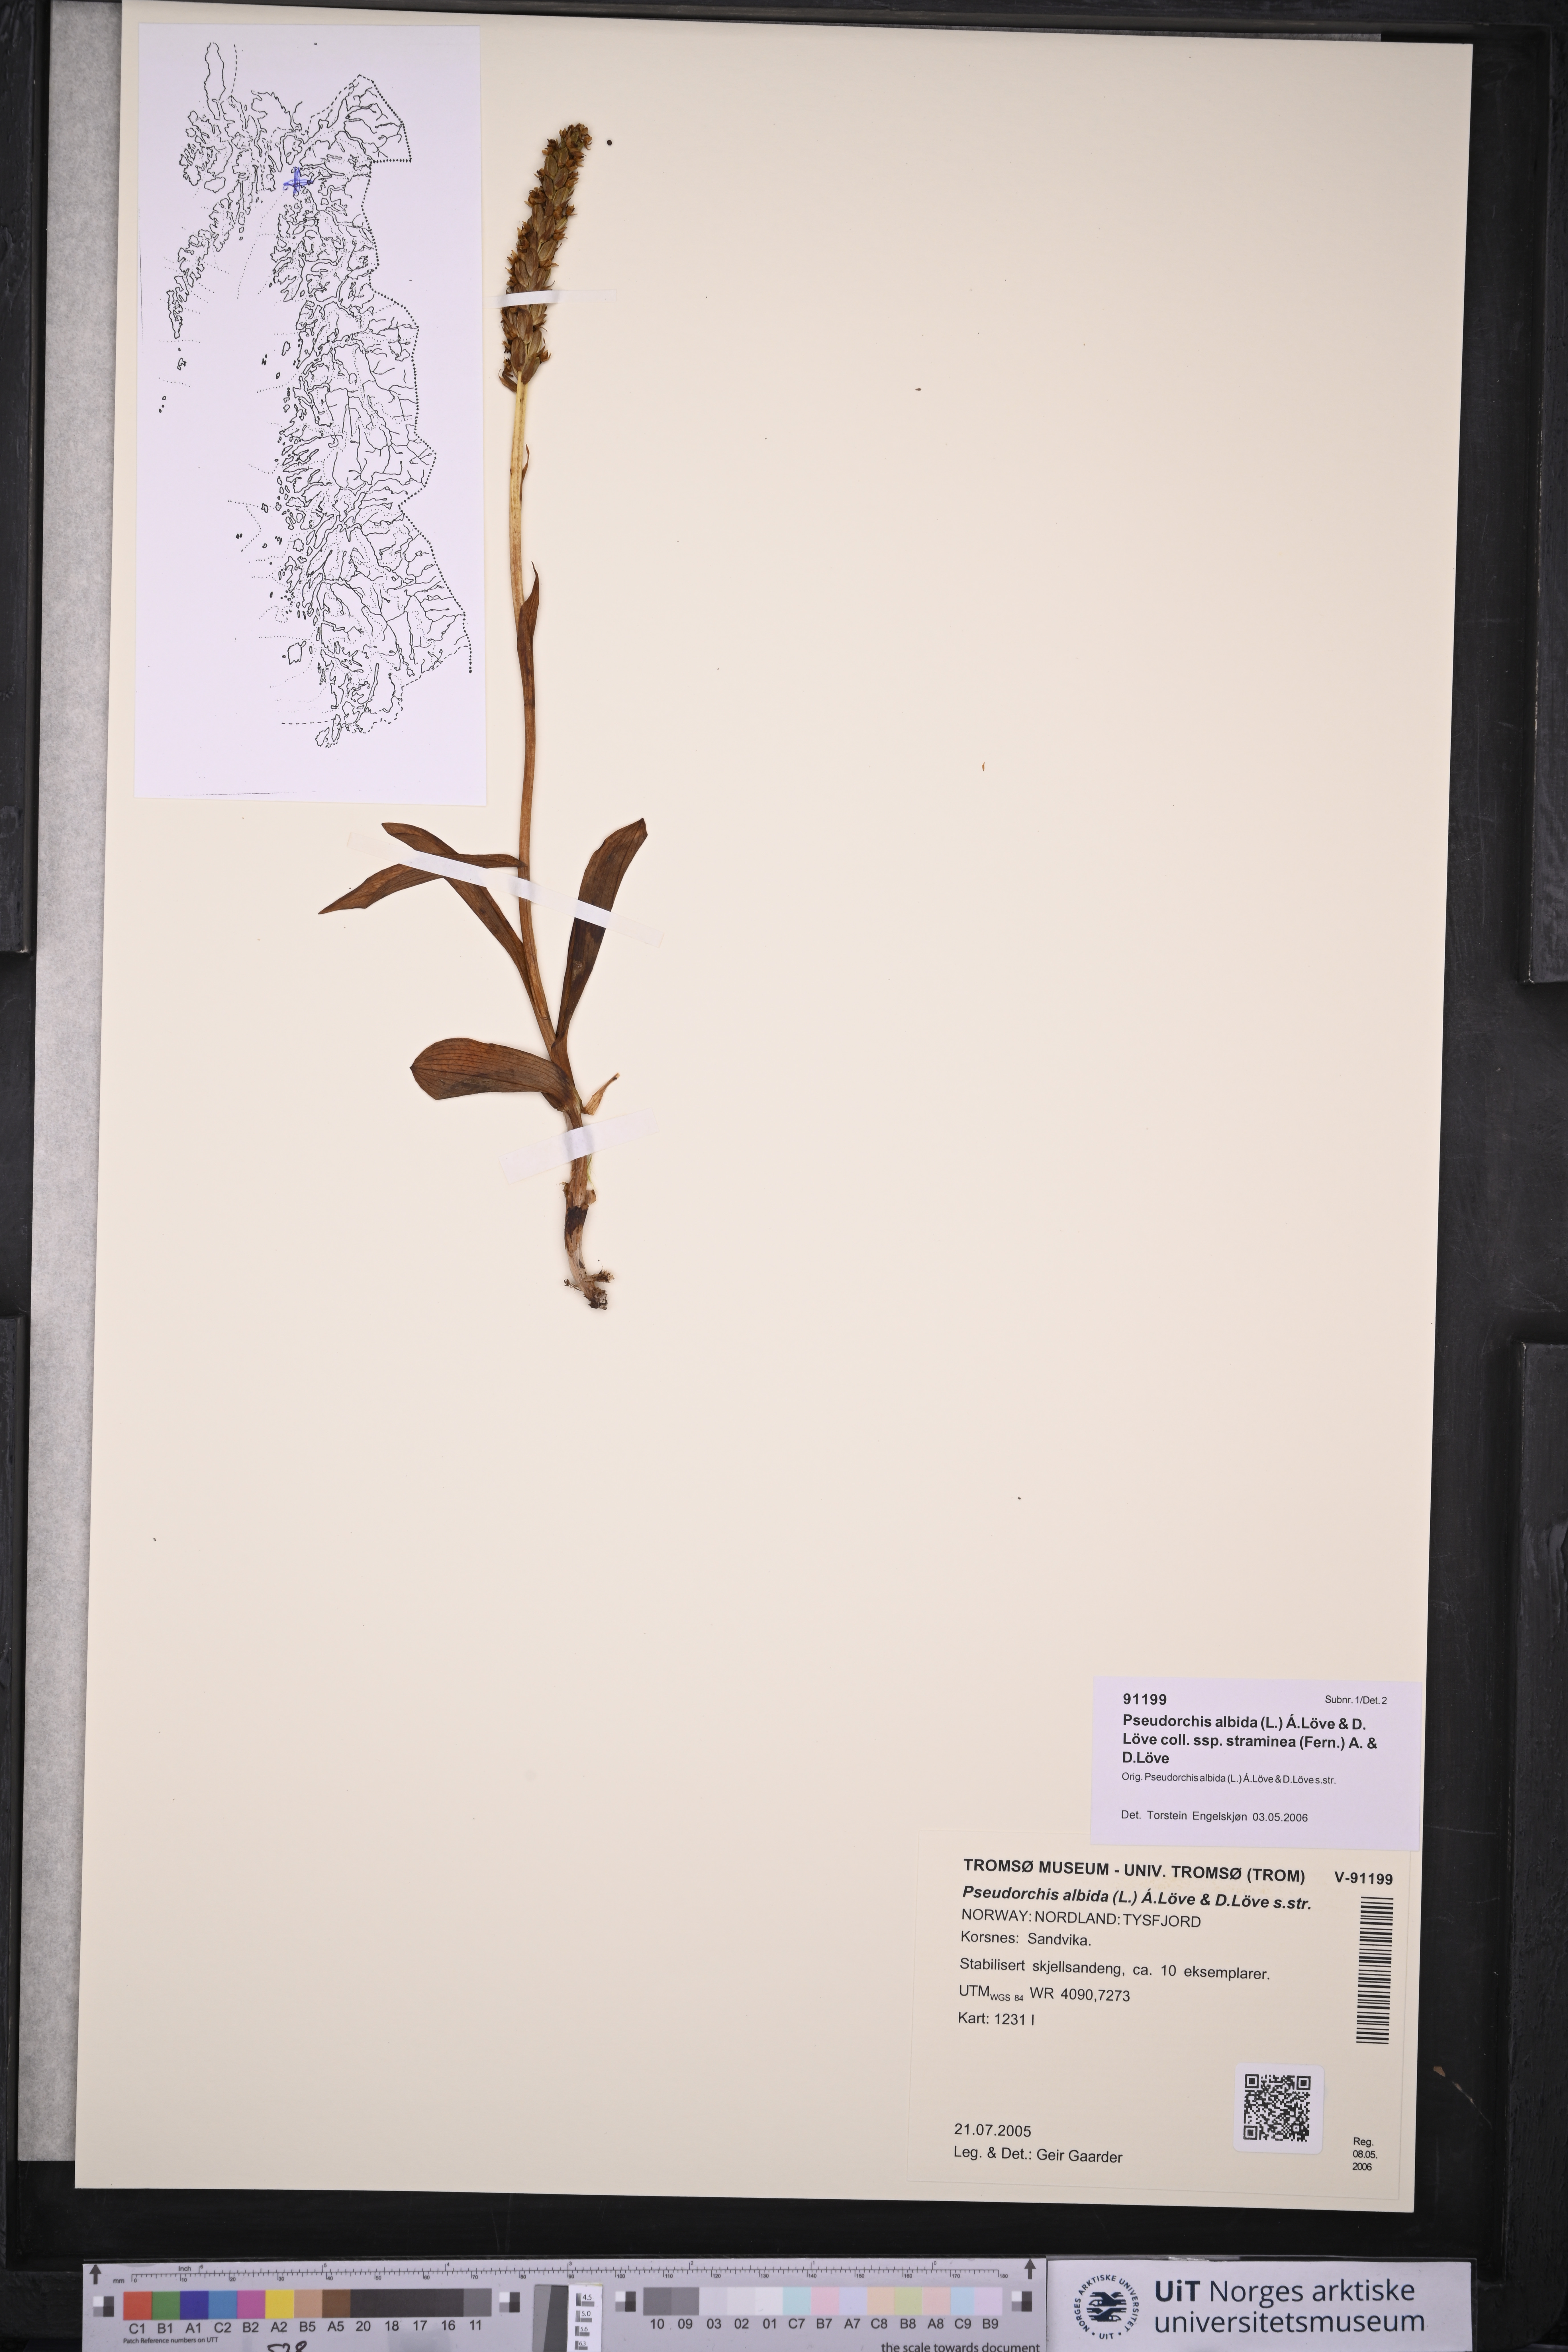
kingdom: Plantae
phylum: Tracheophyta
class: Liliopsida
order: Asparagales
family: Orchidaceae
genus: Pseudorchis
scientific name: Pseudorchis straminea
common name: Vanilla-scented bog orchid
